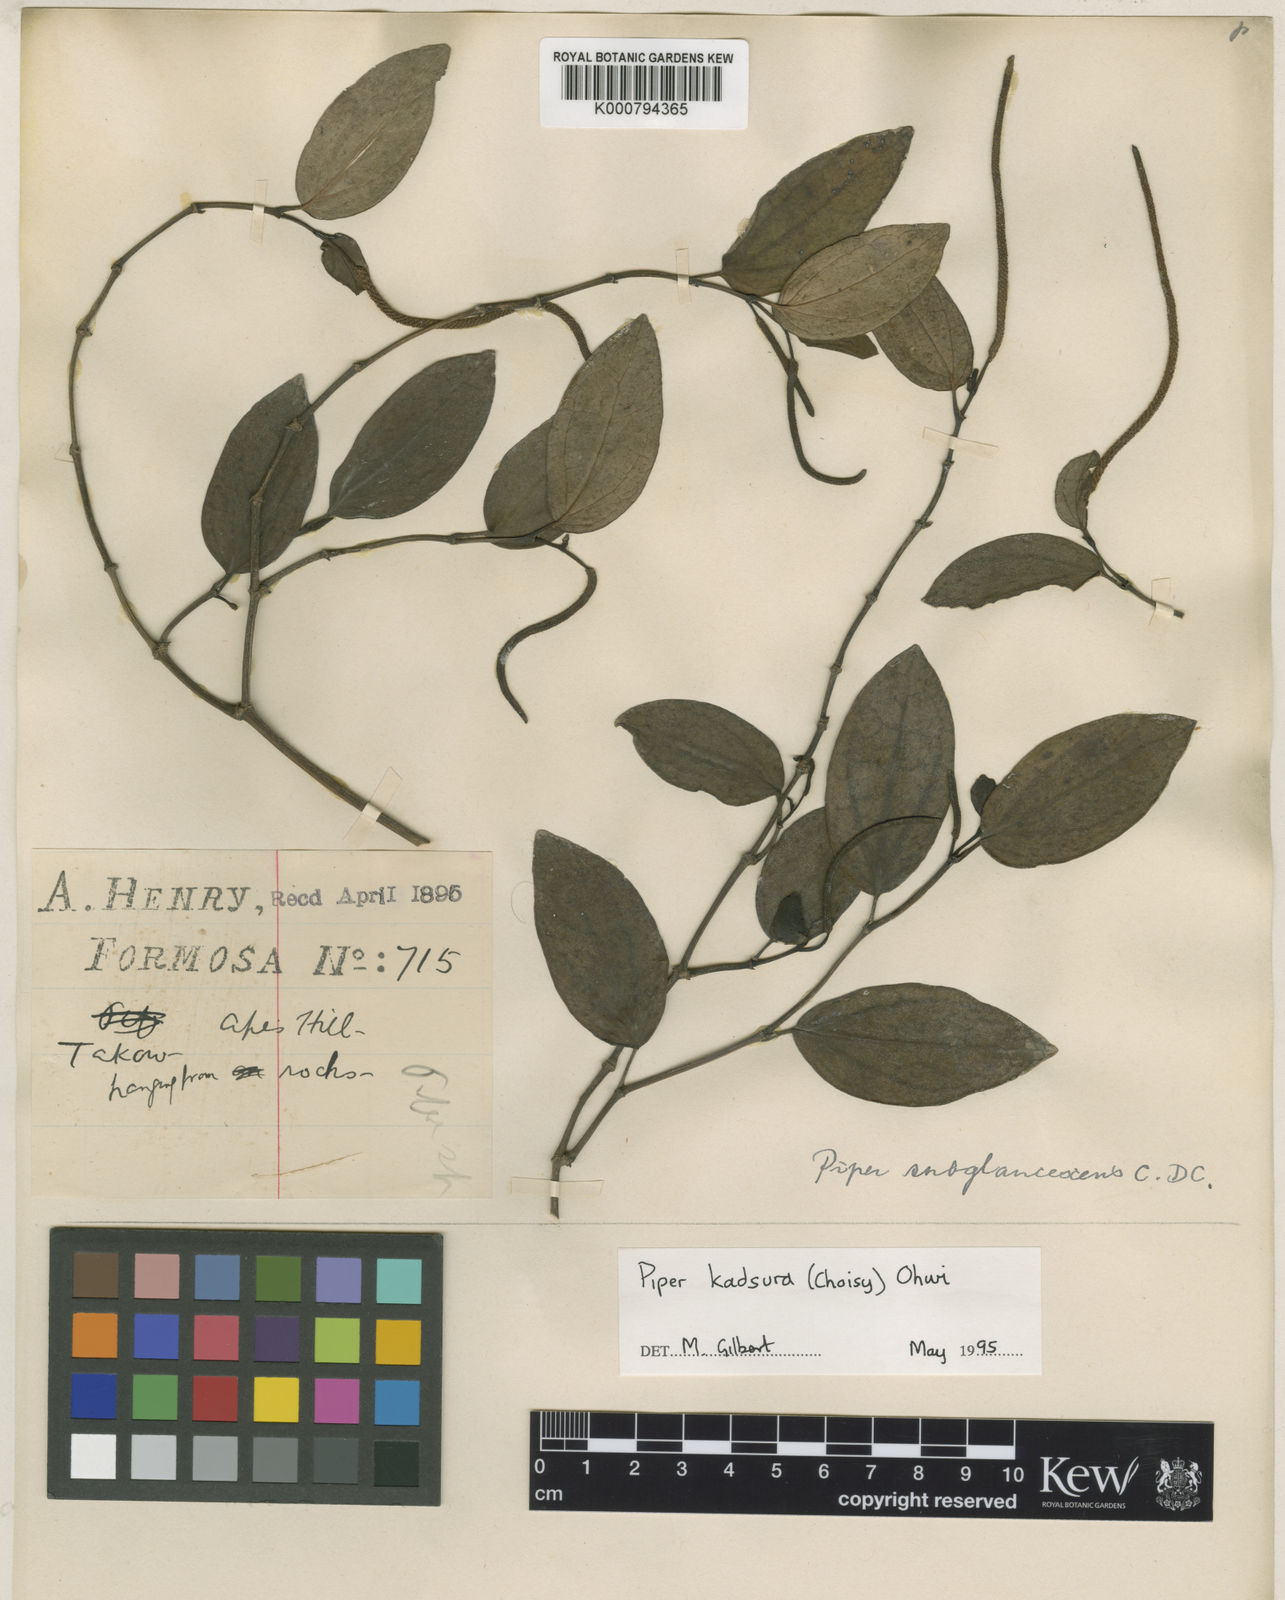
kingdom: Plantae
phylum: Tracheophyta
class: Magnoliopsida
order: Piperales
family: Piperaceae
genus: Piper
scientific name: Piper kadsura
